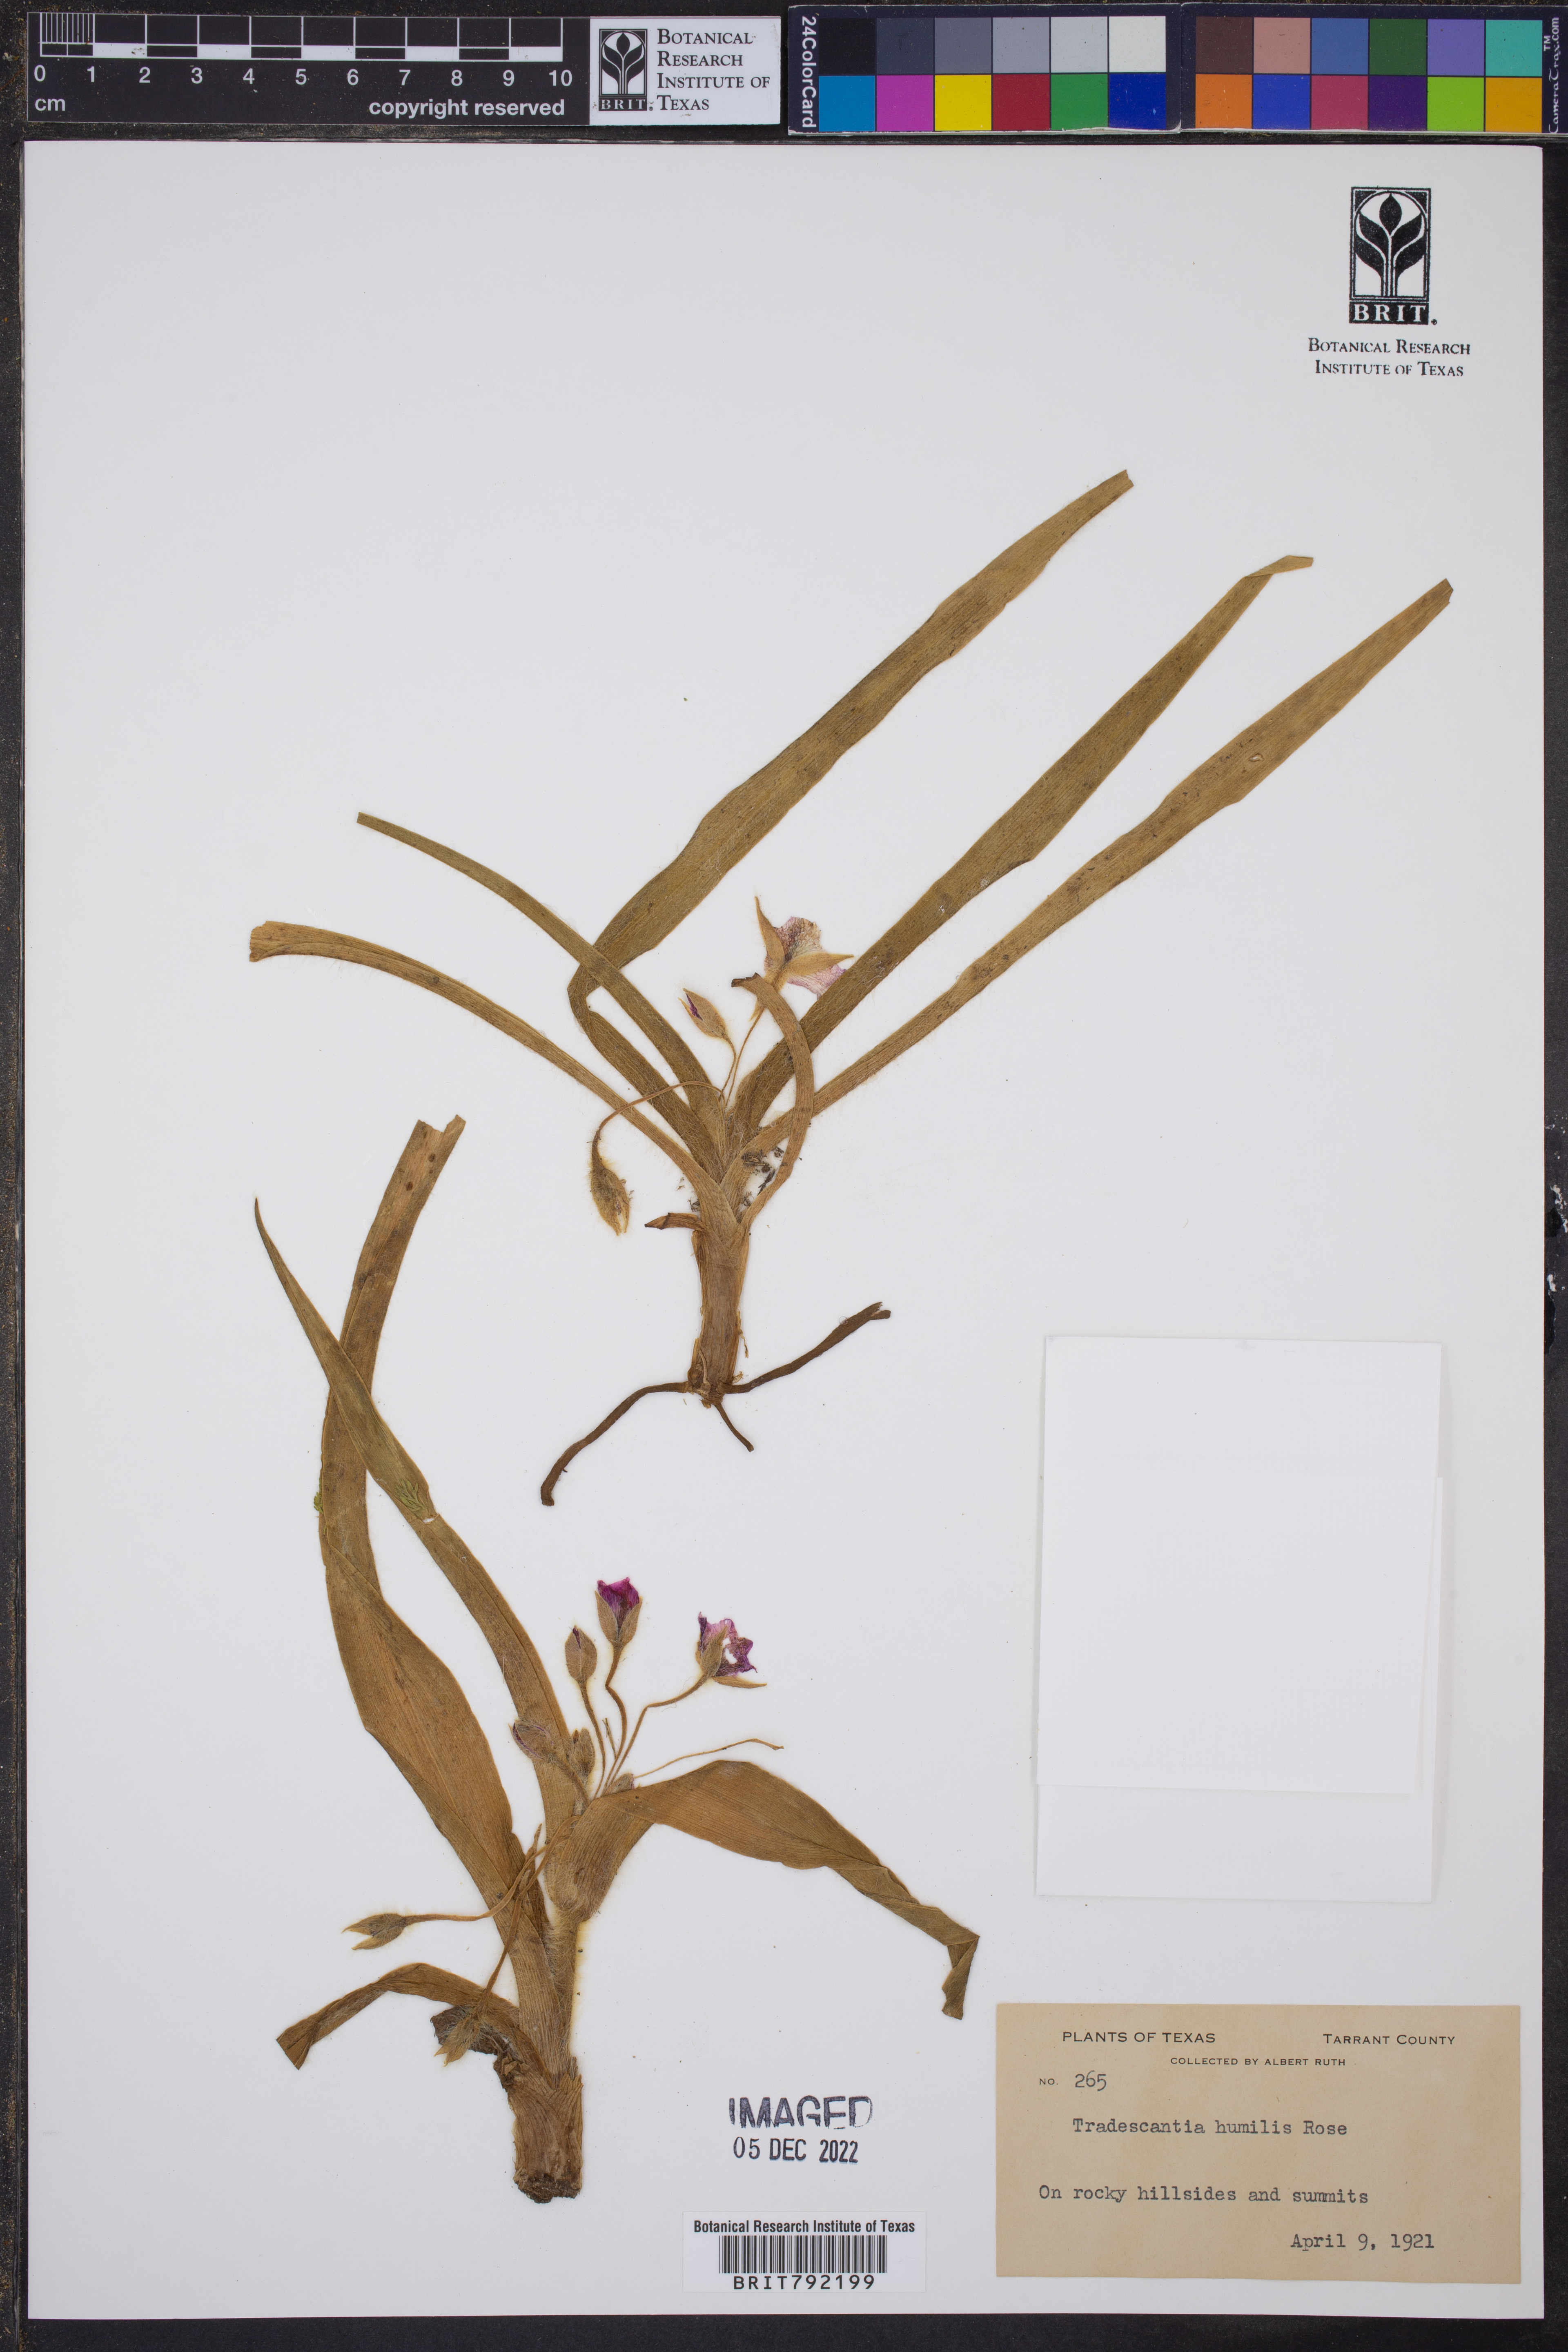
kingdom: Plantae
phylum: Tracheophyta
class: Liliopsida
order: Commelinales
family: Commelinaceae
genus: Tradescantia
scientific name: Tradescantia humilis
